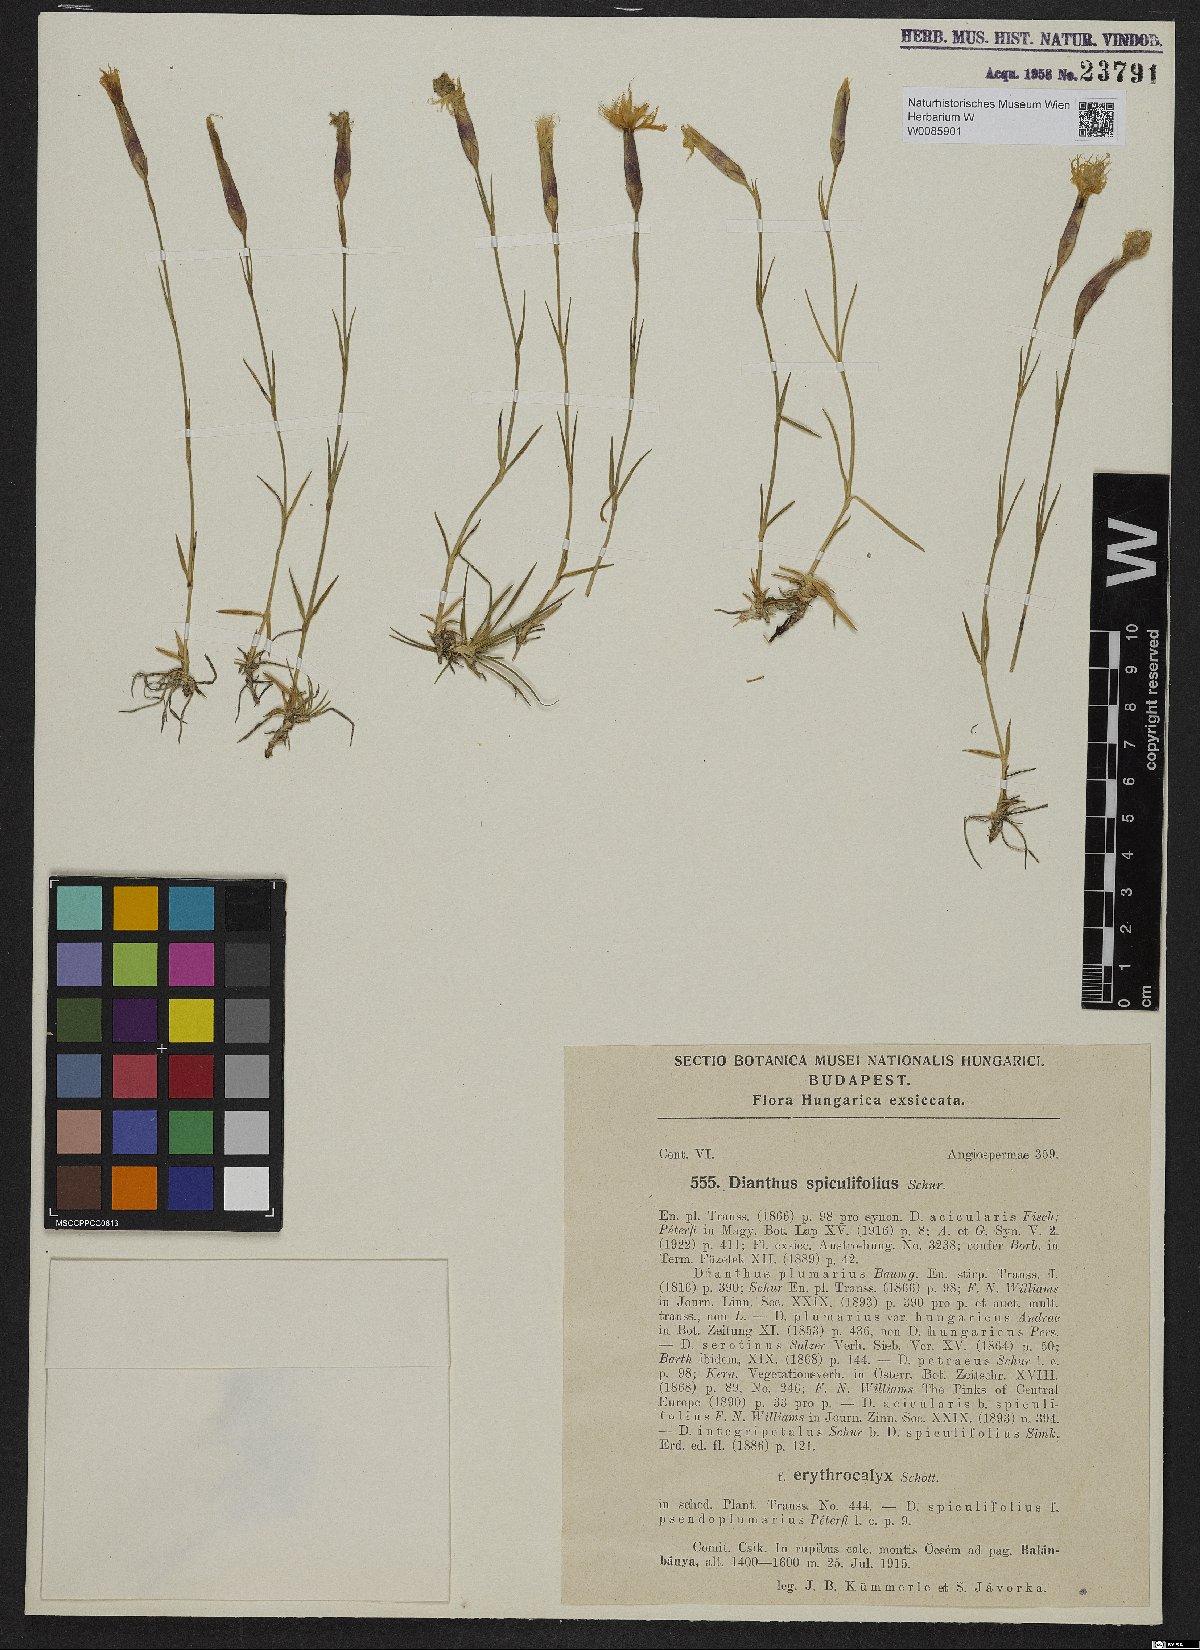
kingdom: Plantae
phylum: Tracheophyta
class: Magnoliopsida
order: Caryophyllales
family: Caryophyllaceae
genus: Dianthus
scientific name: Dianthus spiculifolius
